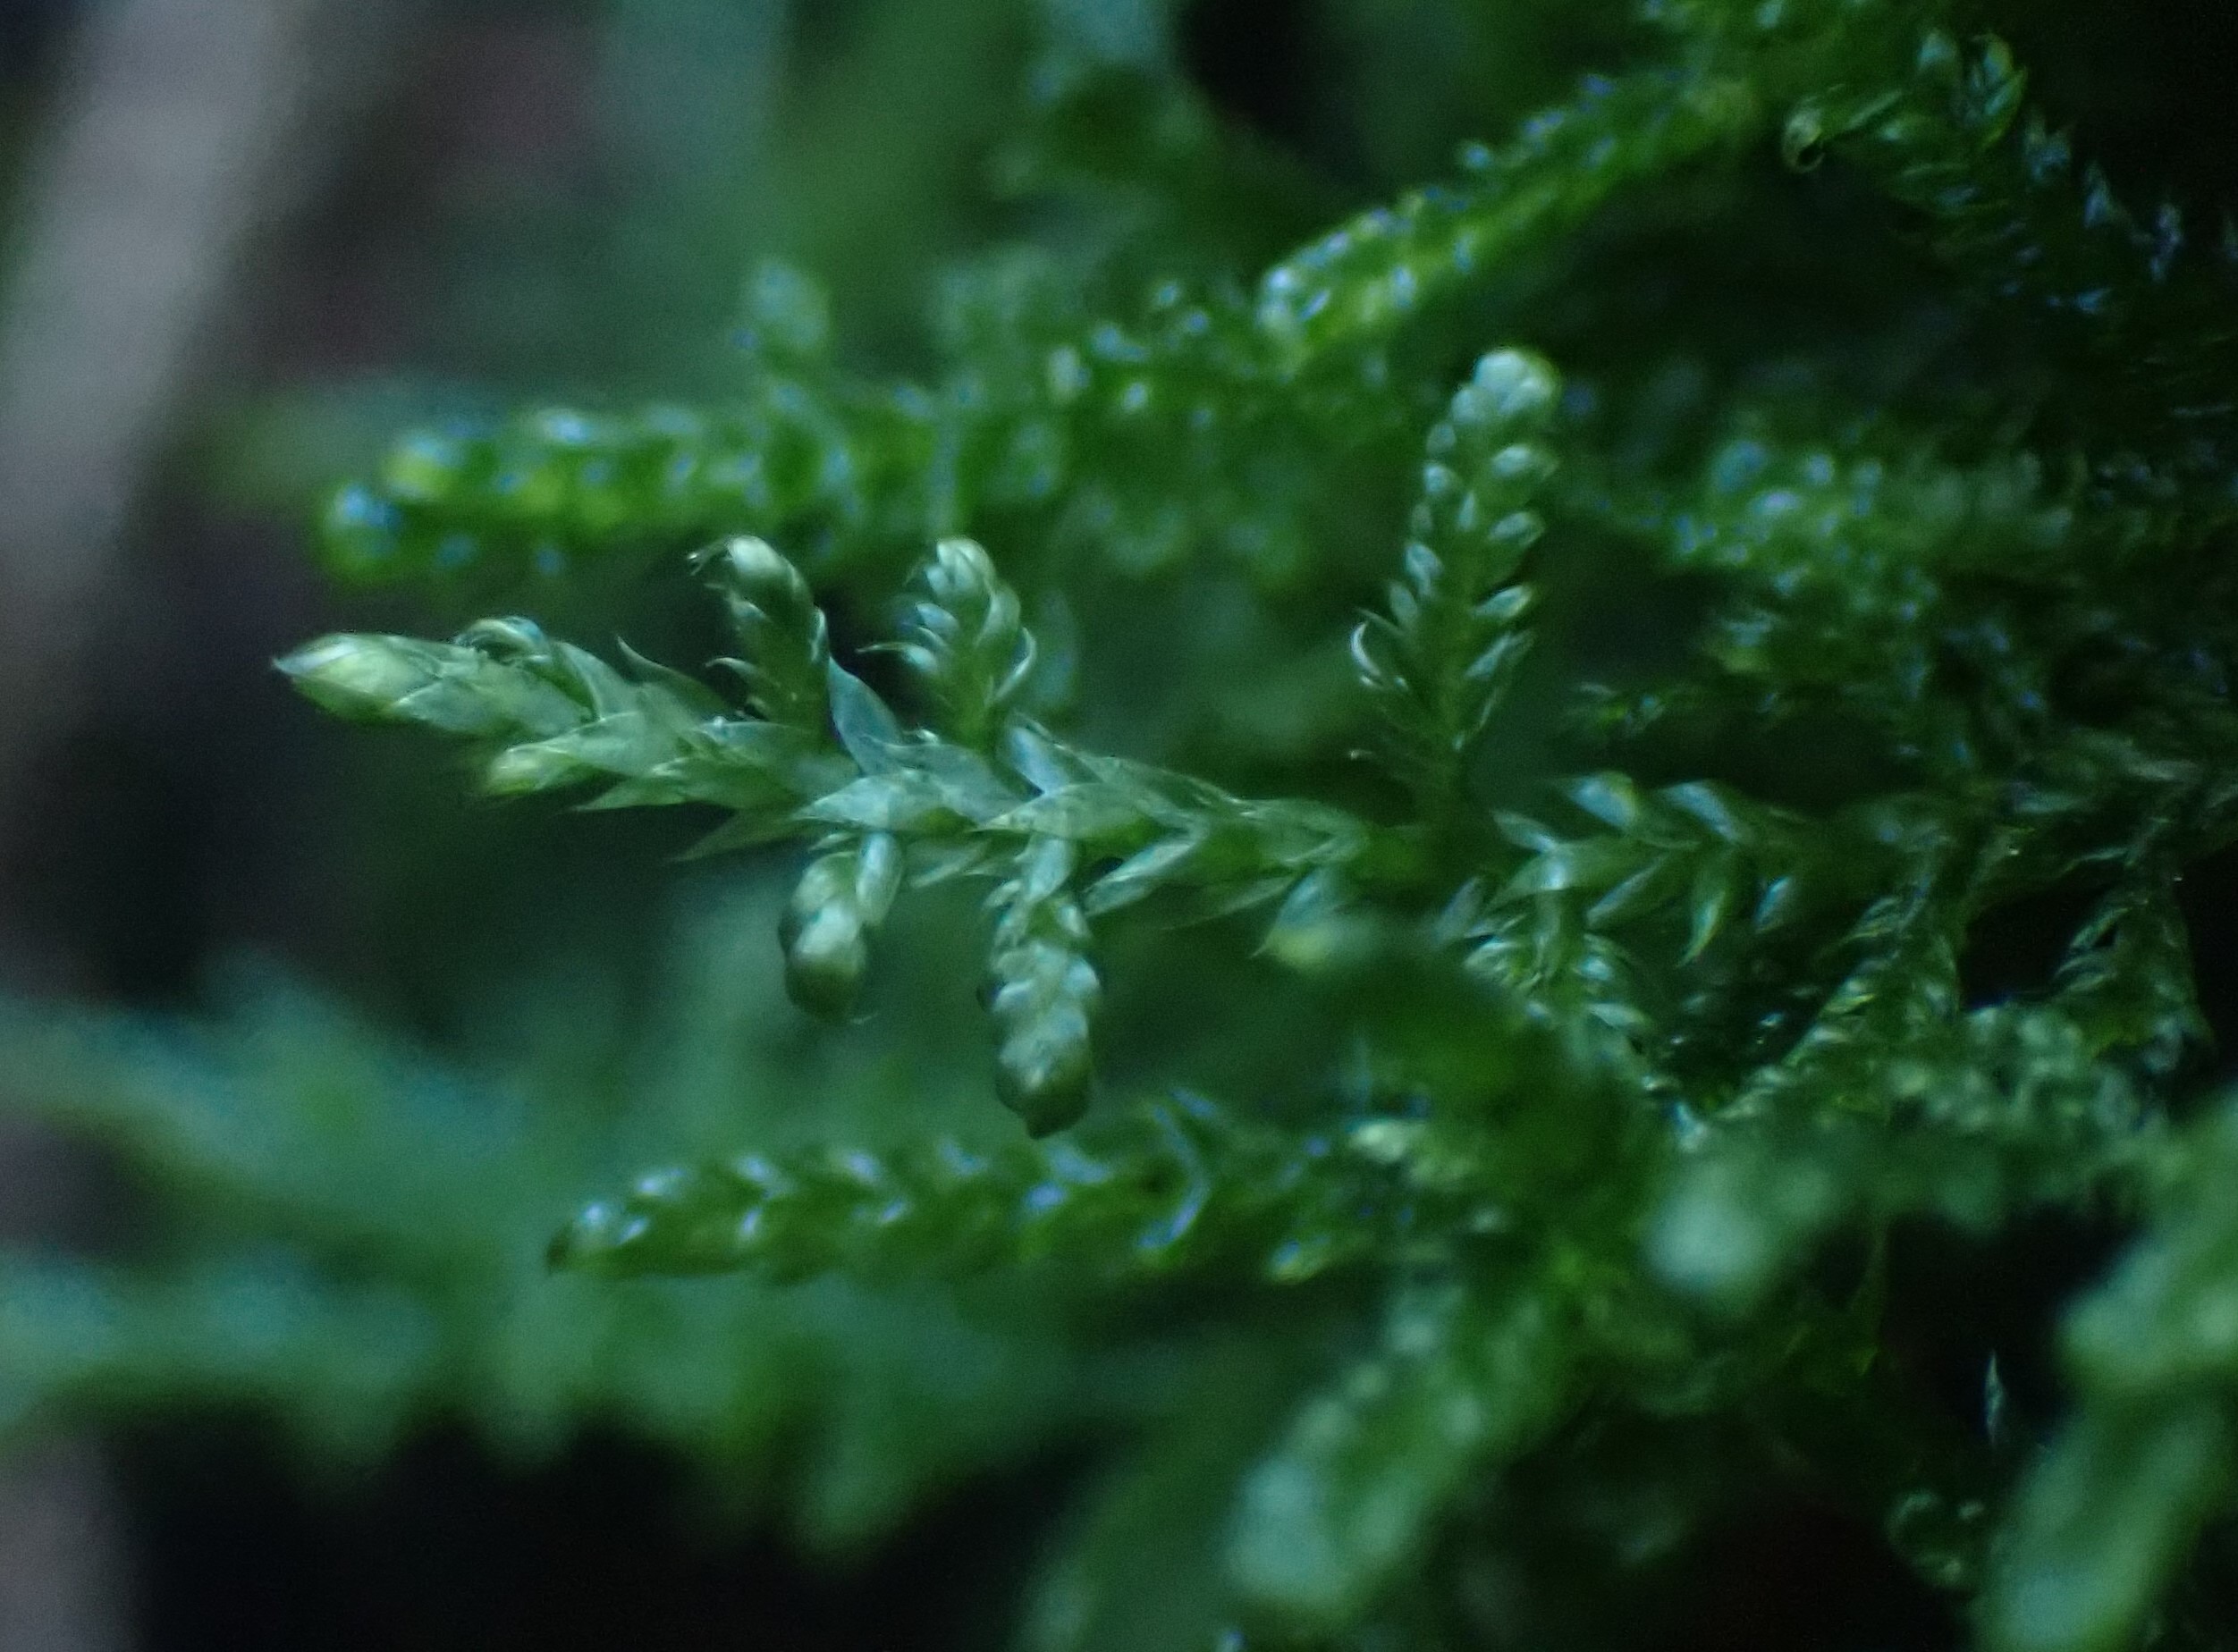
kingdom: Plantae
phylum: Bryophyta
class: Bryopsida
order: Hypnales
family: Hypnaceae
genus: Hypnum
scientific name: Hypnum jutlandicum
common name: Hede-cypresmos
